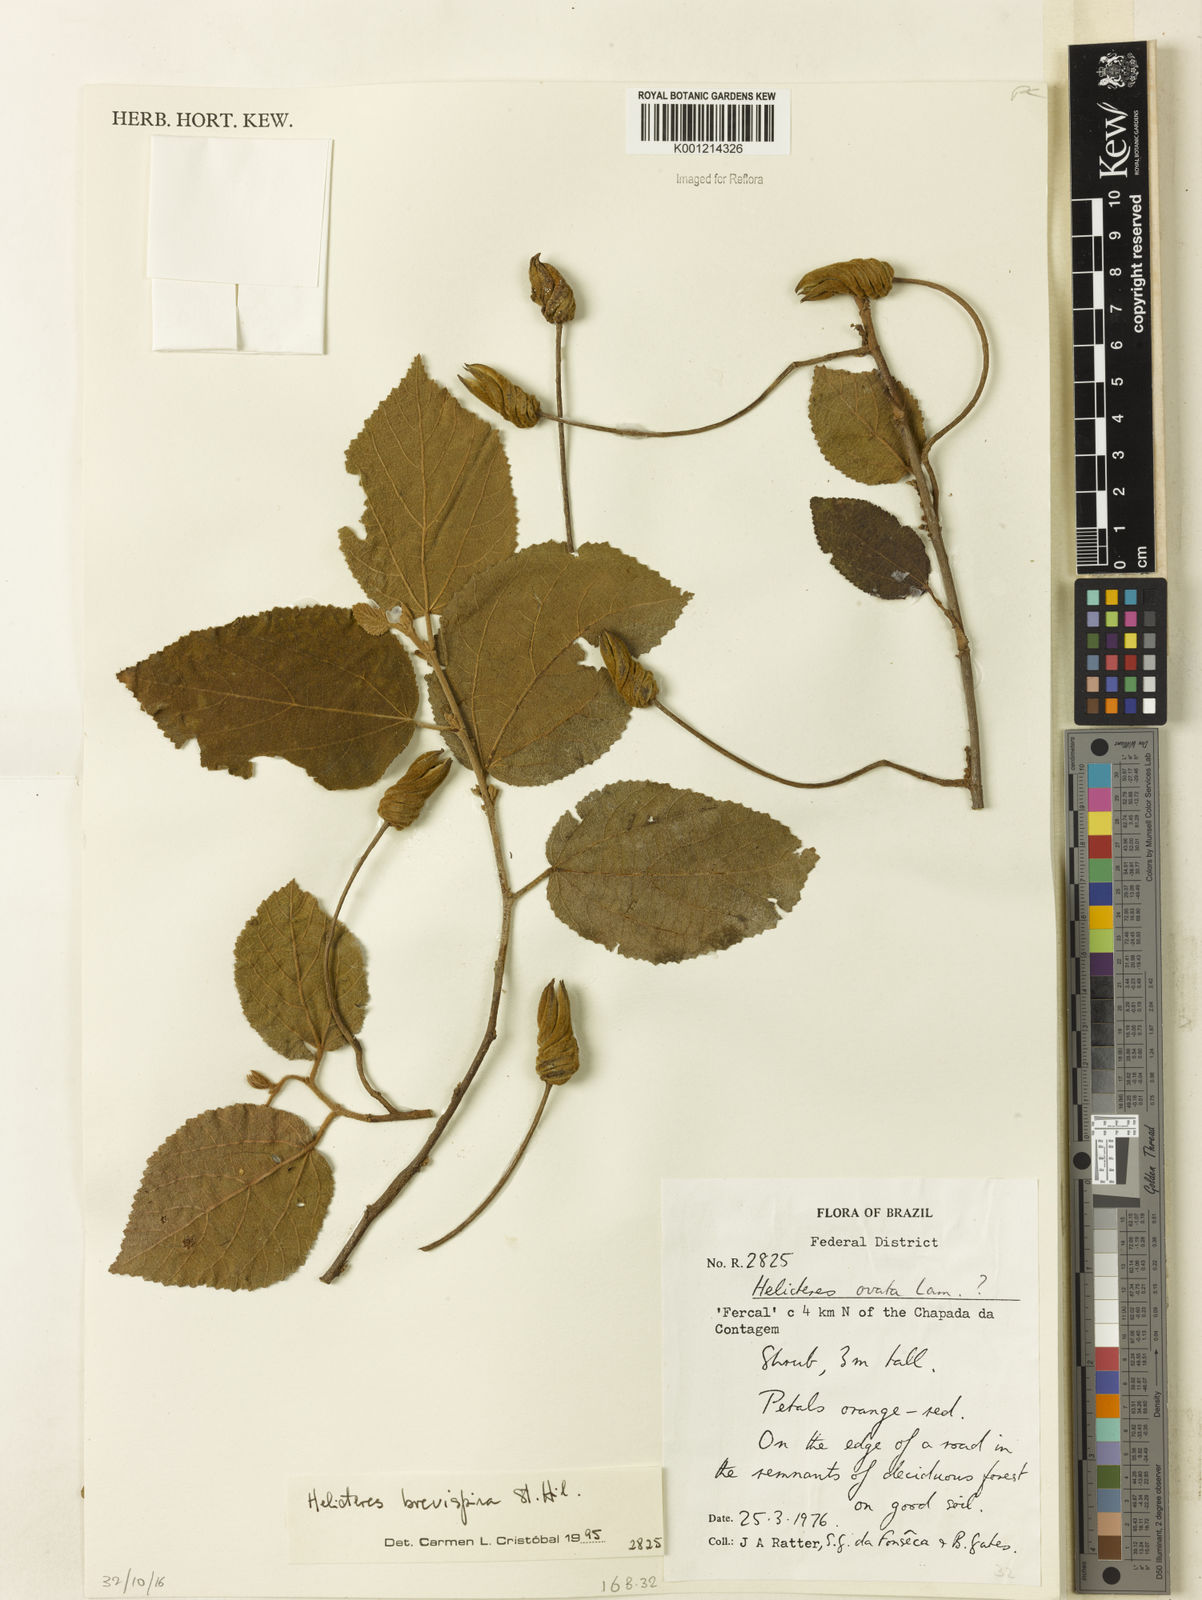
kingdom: Plantae
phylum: Tracheophyta
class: Magnoliopsida
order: Malvales
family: Malvaceae
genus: Helicteres
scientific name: Helicteres
